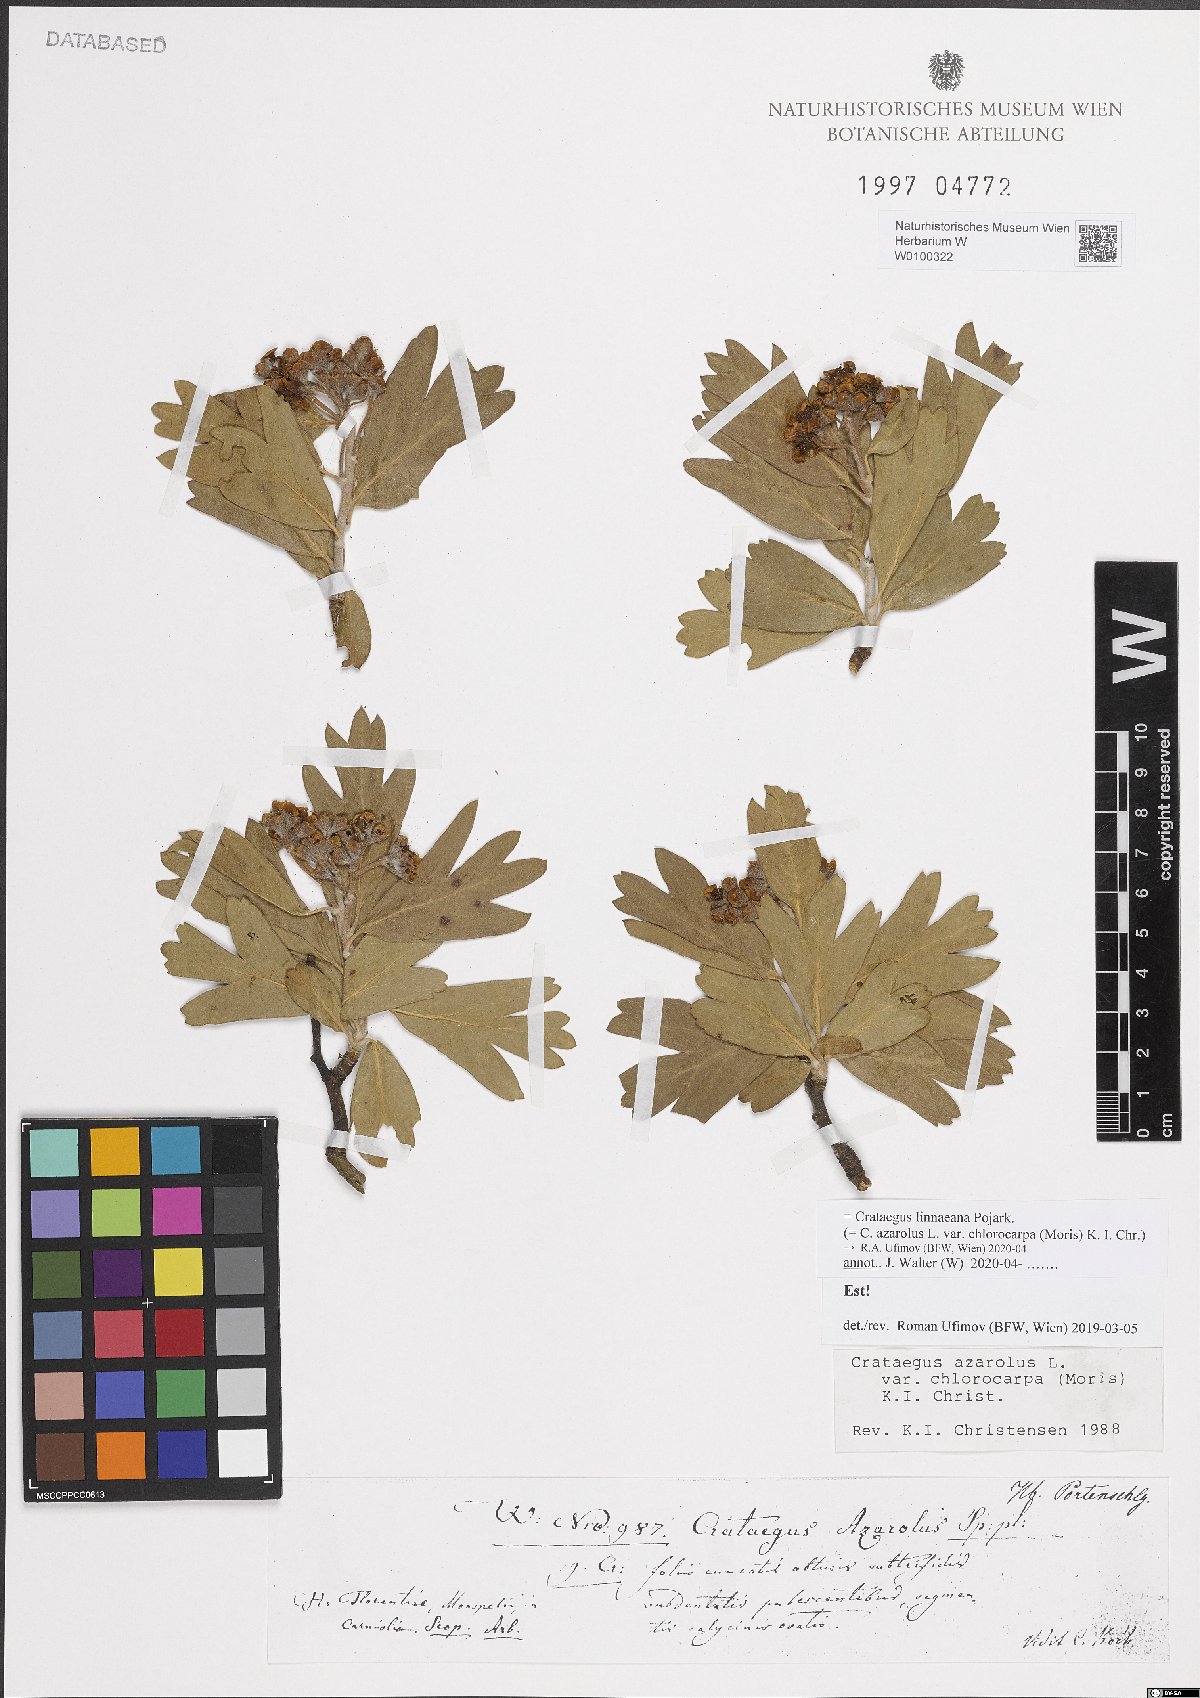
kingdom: Plantae
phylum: Tracheophyta
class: Magnoliopsida
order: Rosales
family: Rosaceae
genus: Crataegus
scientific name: Crataegus azarolus
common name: Azarole
